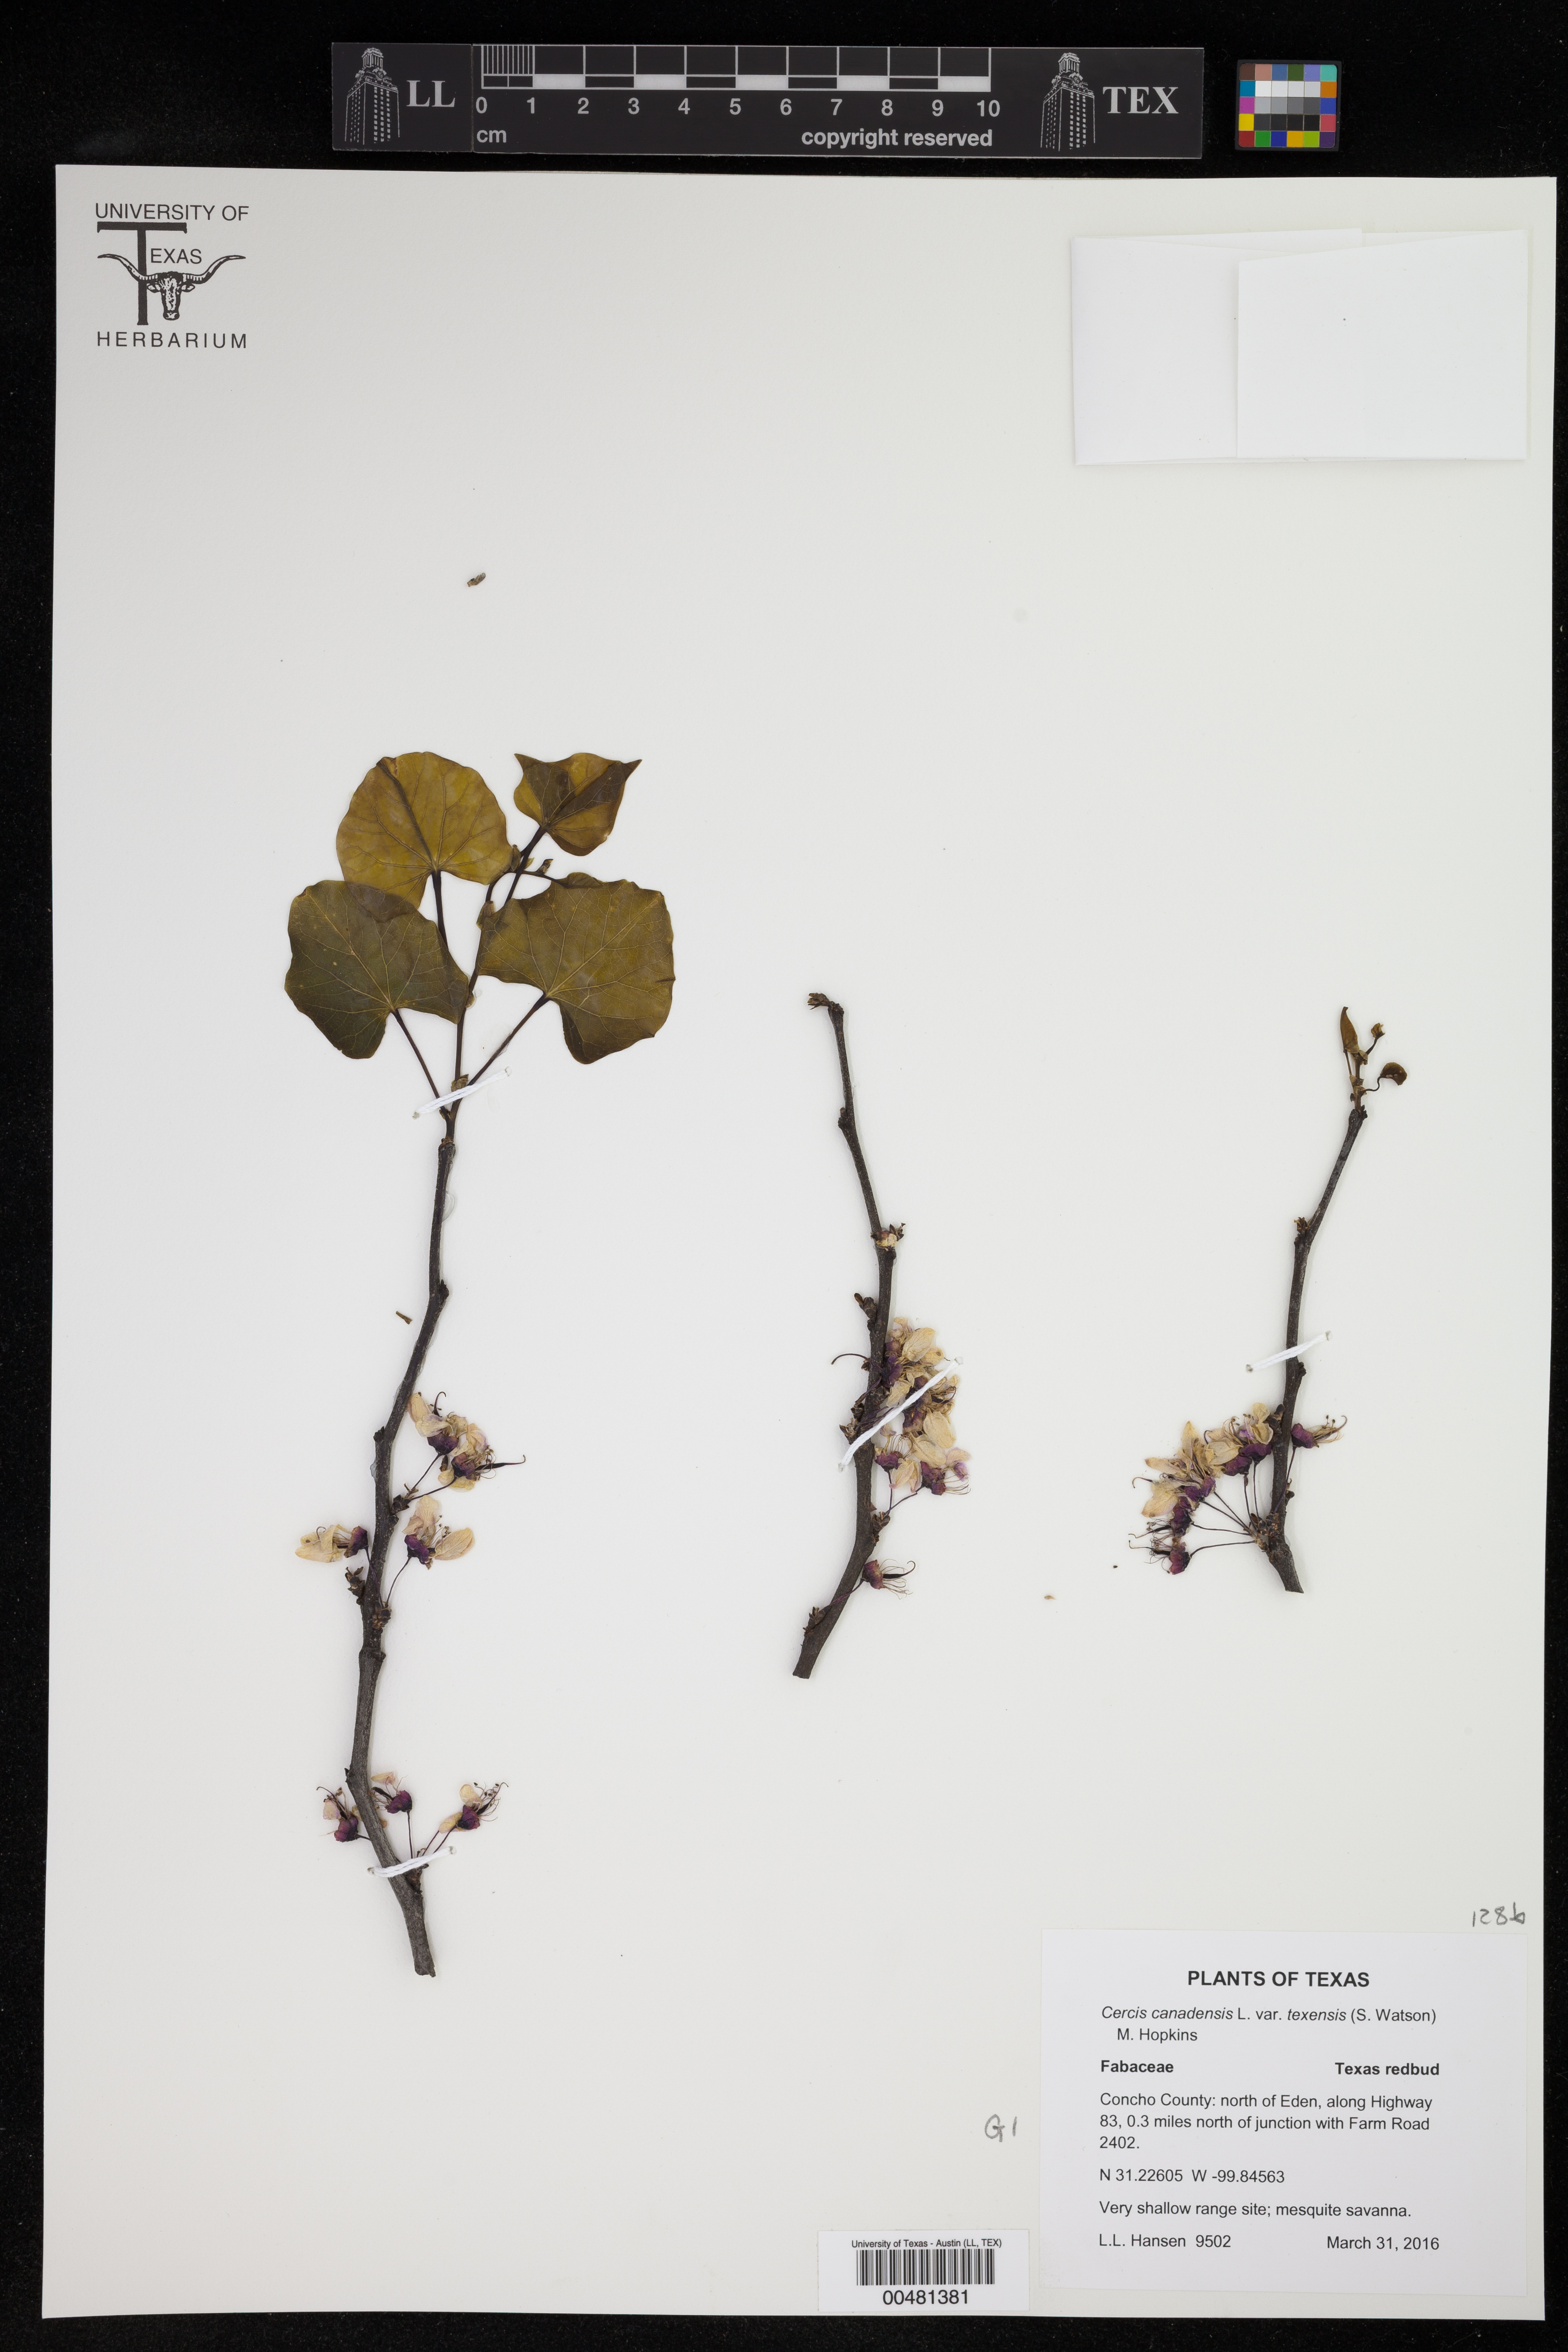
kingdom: Plantae
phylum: Tracheophyta
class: Magnoliopsida
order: Fabales
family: Fabaceae
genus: Cercis
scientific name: Cercis canadensis
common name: Eastern redbud
